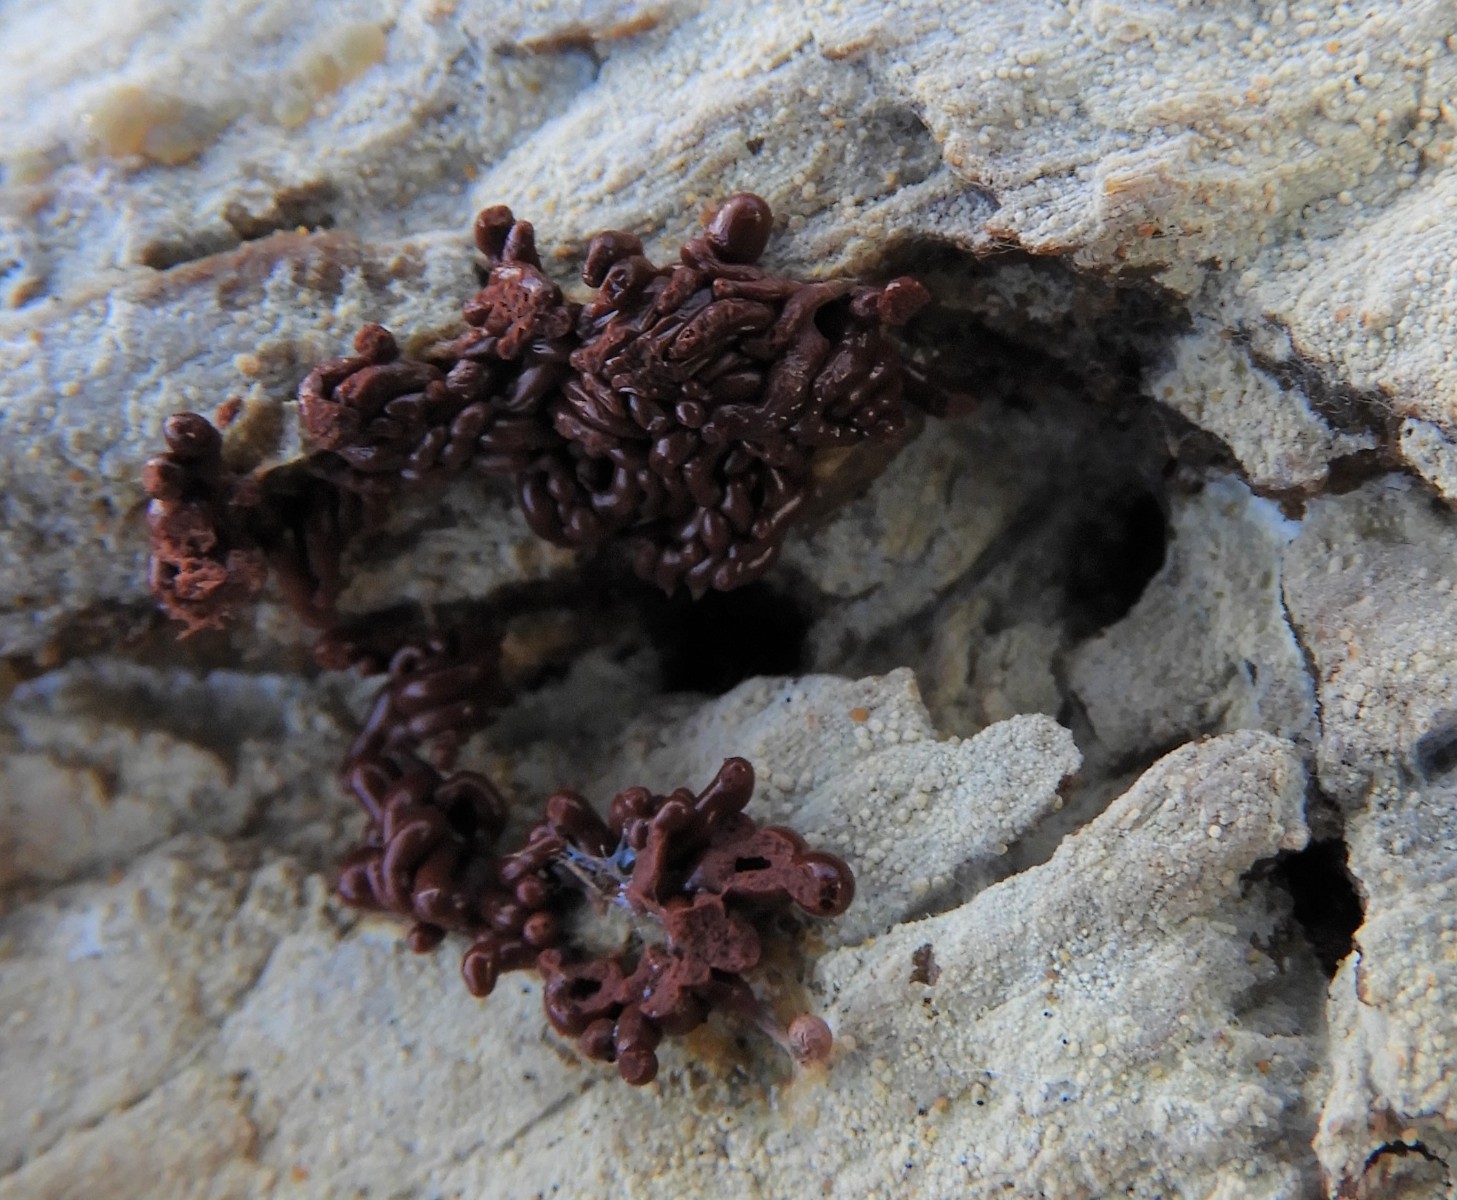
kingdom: Protozoa
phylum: Amoebozoa
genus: Arcyria
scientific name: Arcyria
